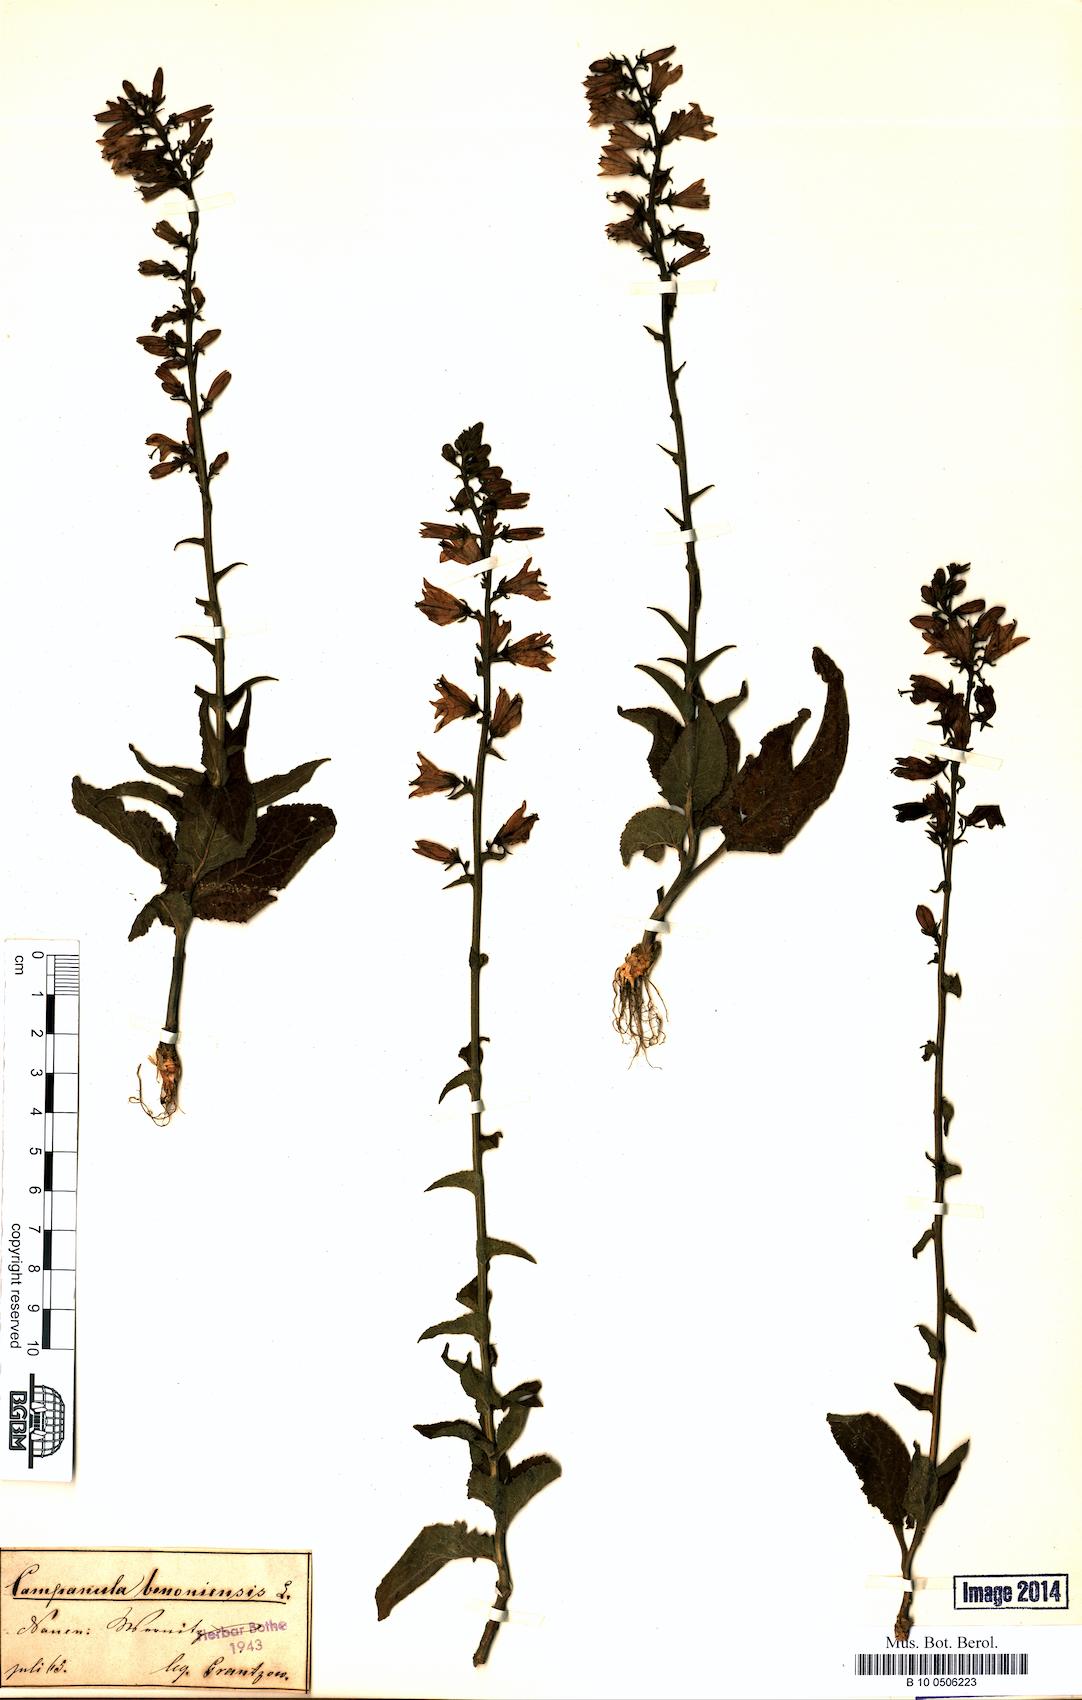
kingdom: Plantae
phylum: Tracheophyta
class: Magnoliopsida
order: Asterales
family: Campanulaceae
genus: Campanula
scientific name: Campanula bononiensis
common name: Pale bellflower
